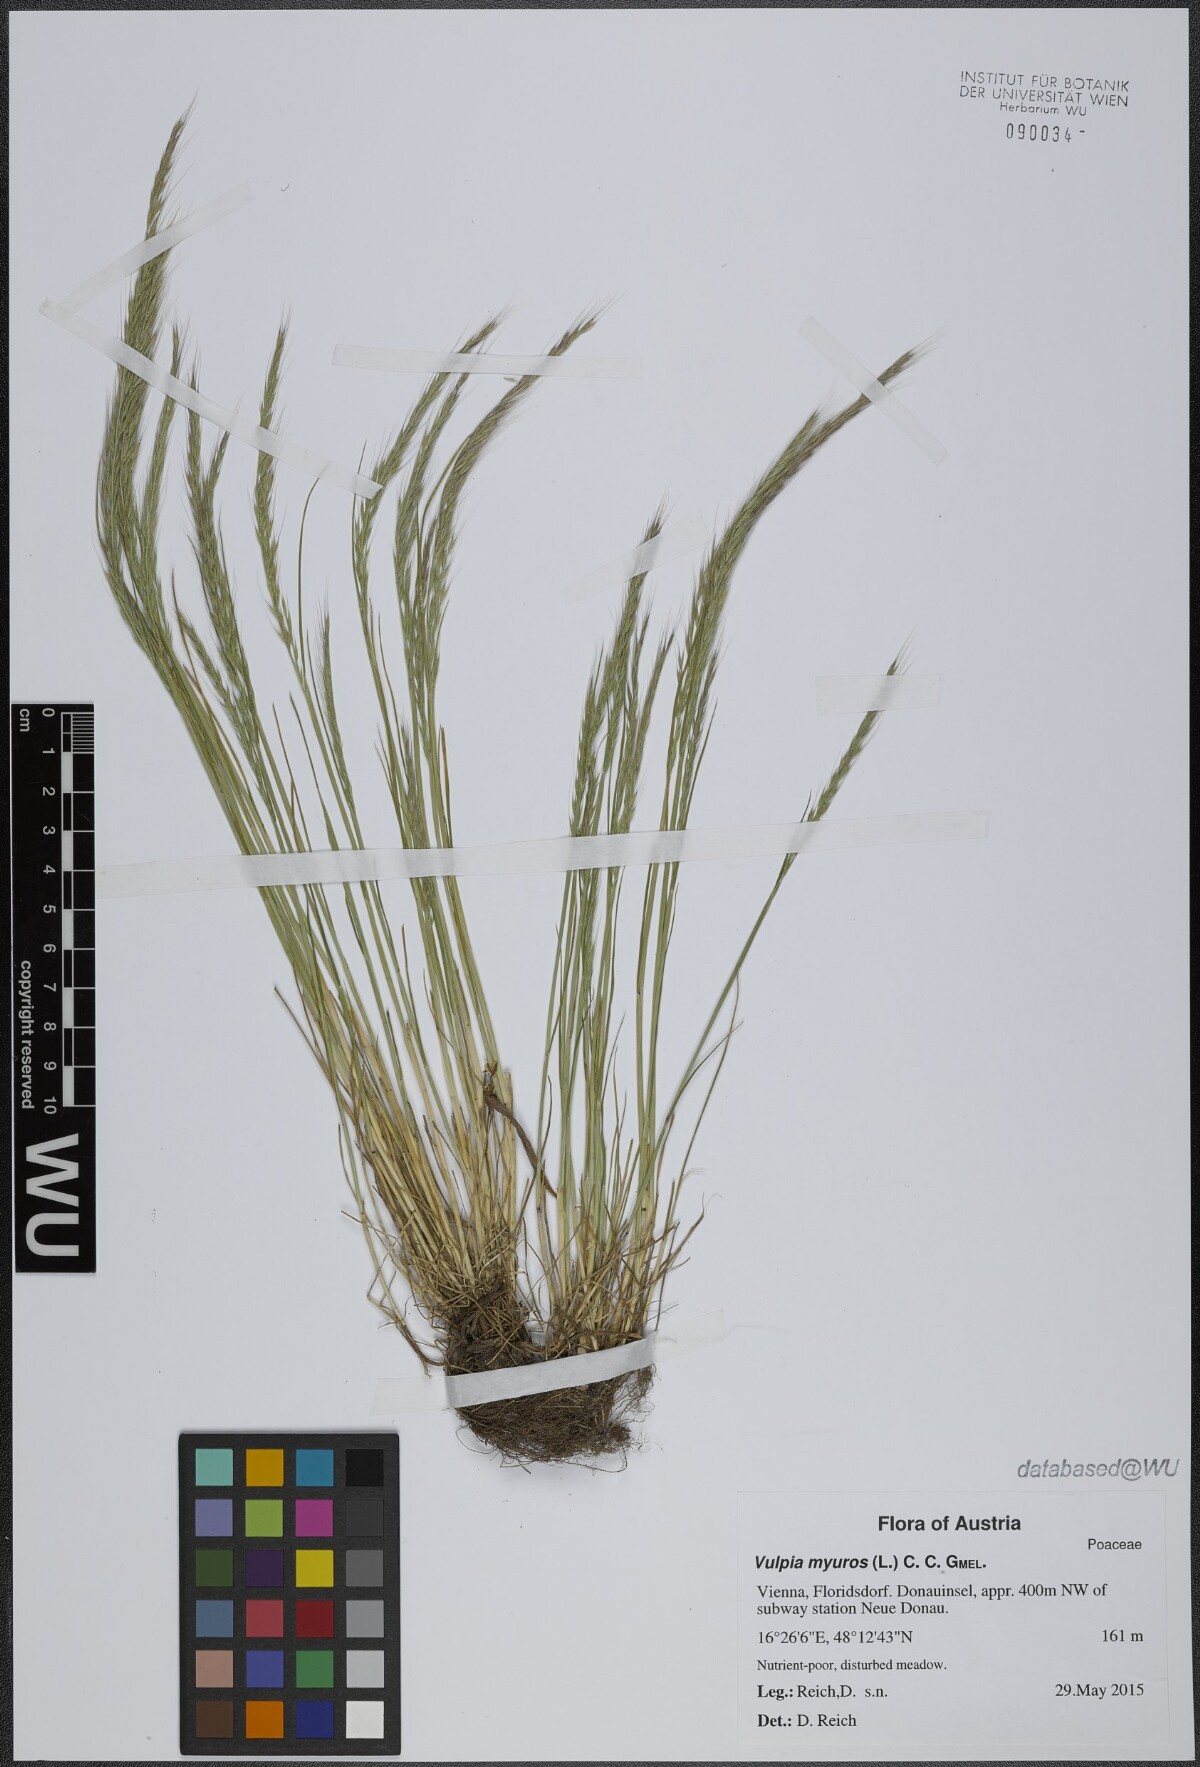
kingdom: Plantae
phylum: Tracheophyta
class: Liliopsida
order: Poales
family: Poaceae
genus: Festuca
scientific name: Festuca myuros
